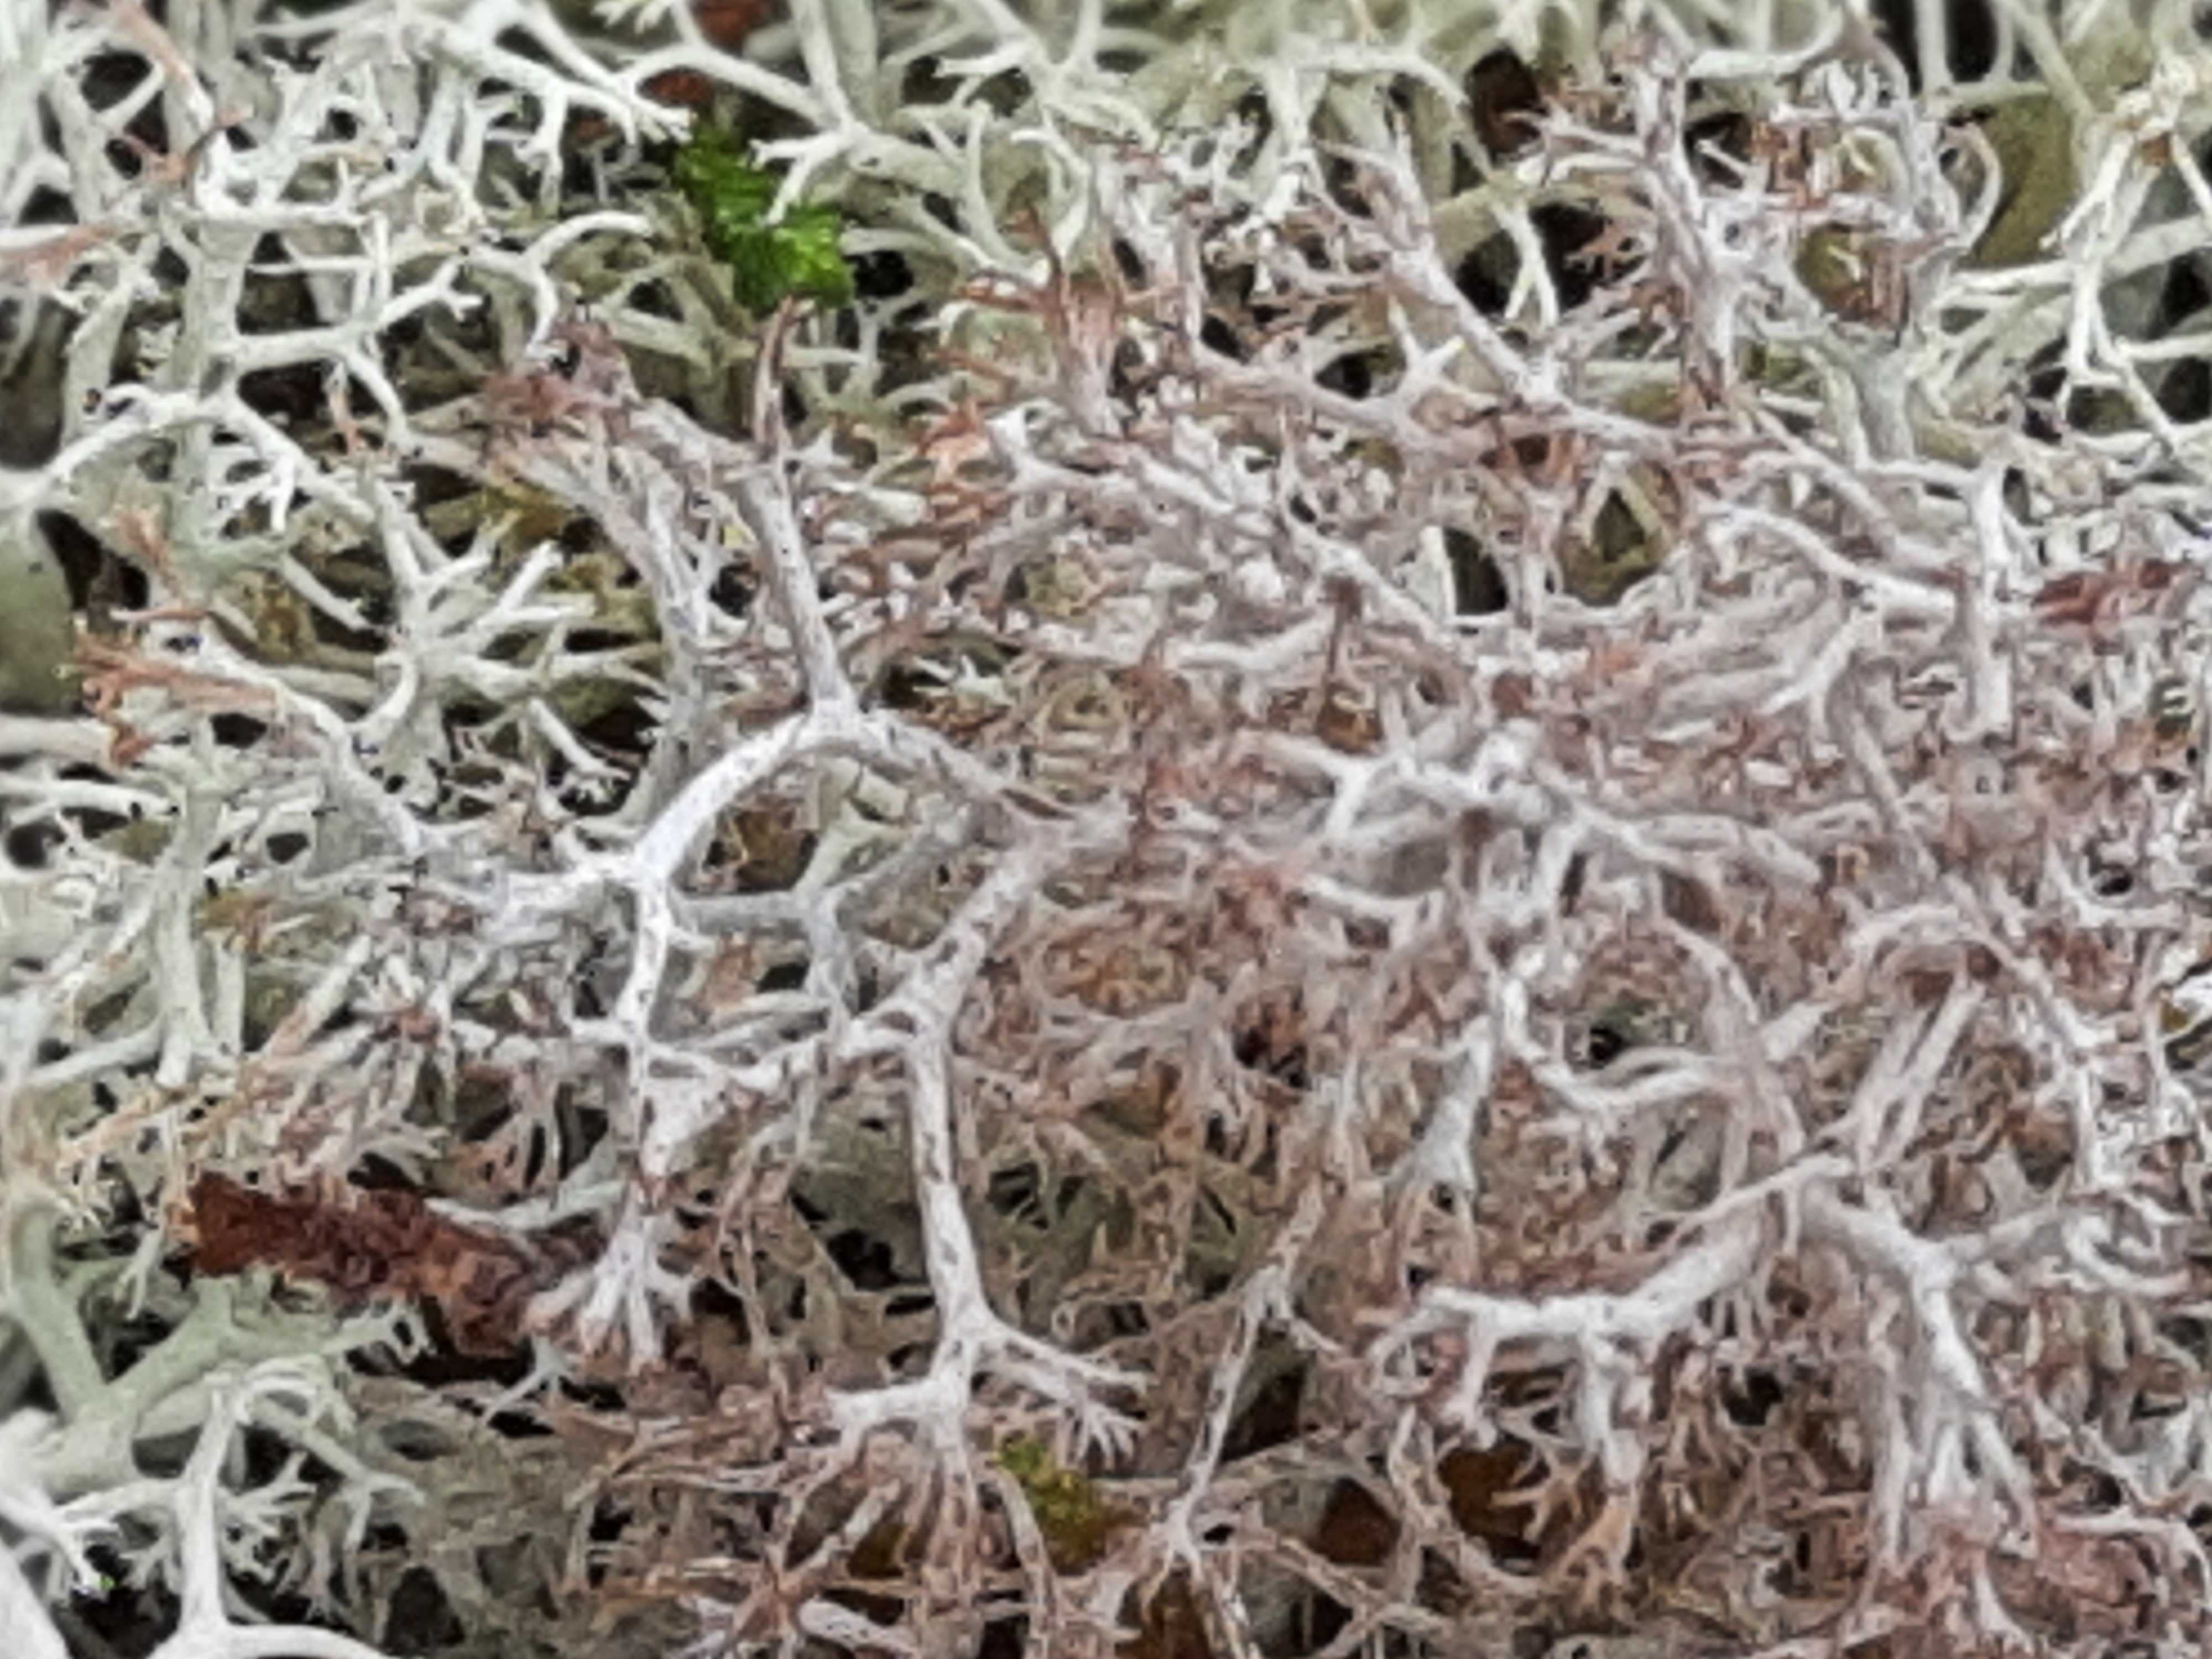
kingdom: Fungi
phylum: Ascomycota
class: Lecanoromycetes
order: Lecanorales
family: Cladoniaceae
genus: Cladonia
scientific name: Cladonia
